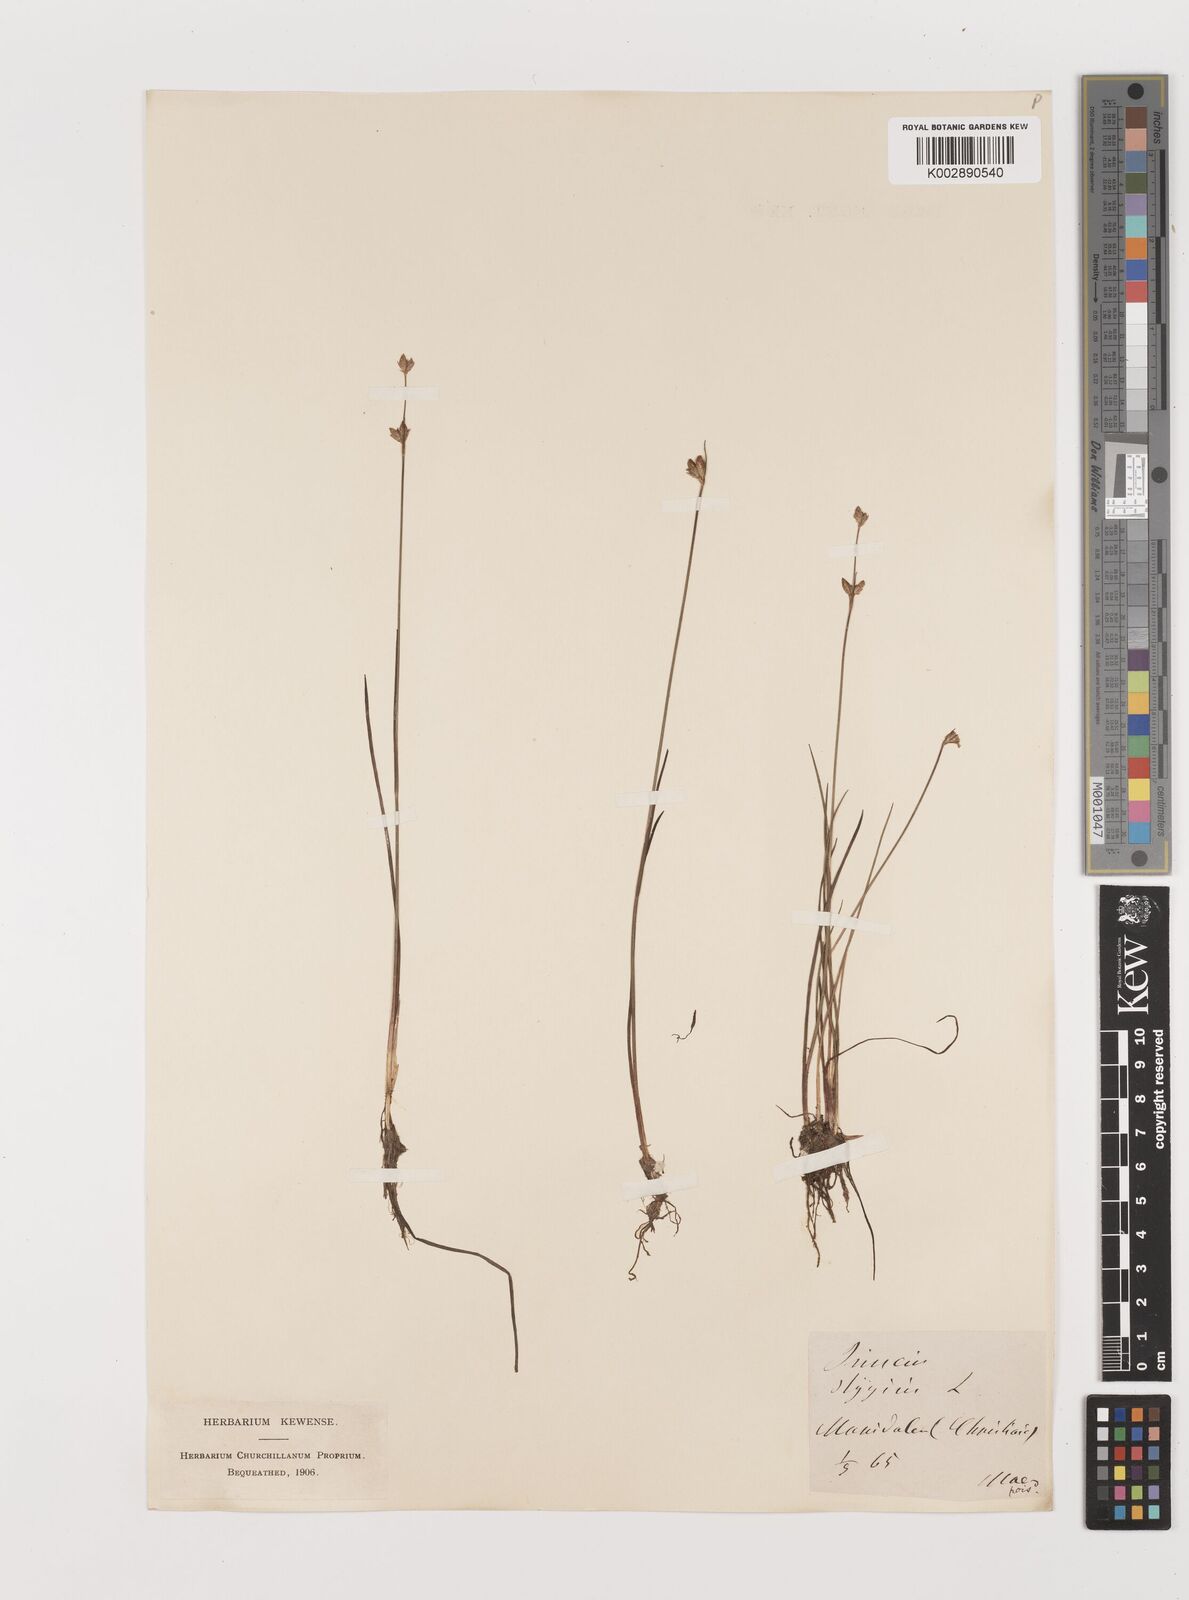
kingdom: Plantae
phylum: Tracheophyta
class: Liliopsida
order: Poales
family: Juncaceae
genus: Juncus
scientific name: Juncus stygius
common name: Bog rush
